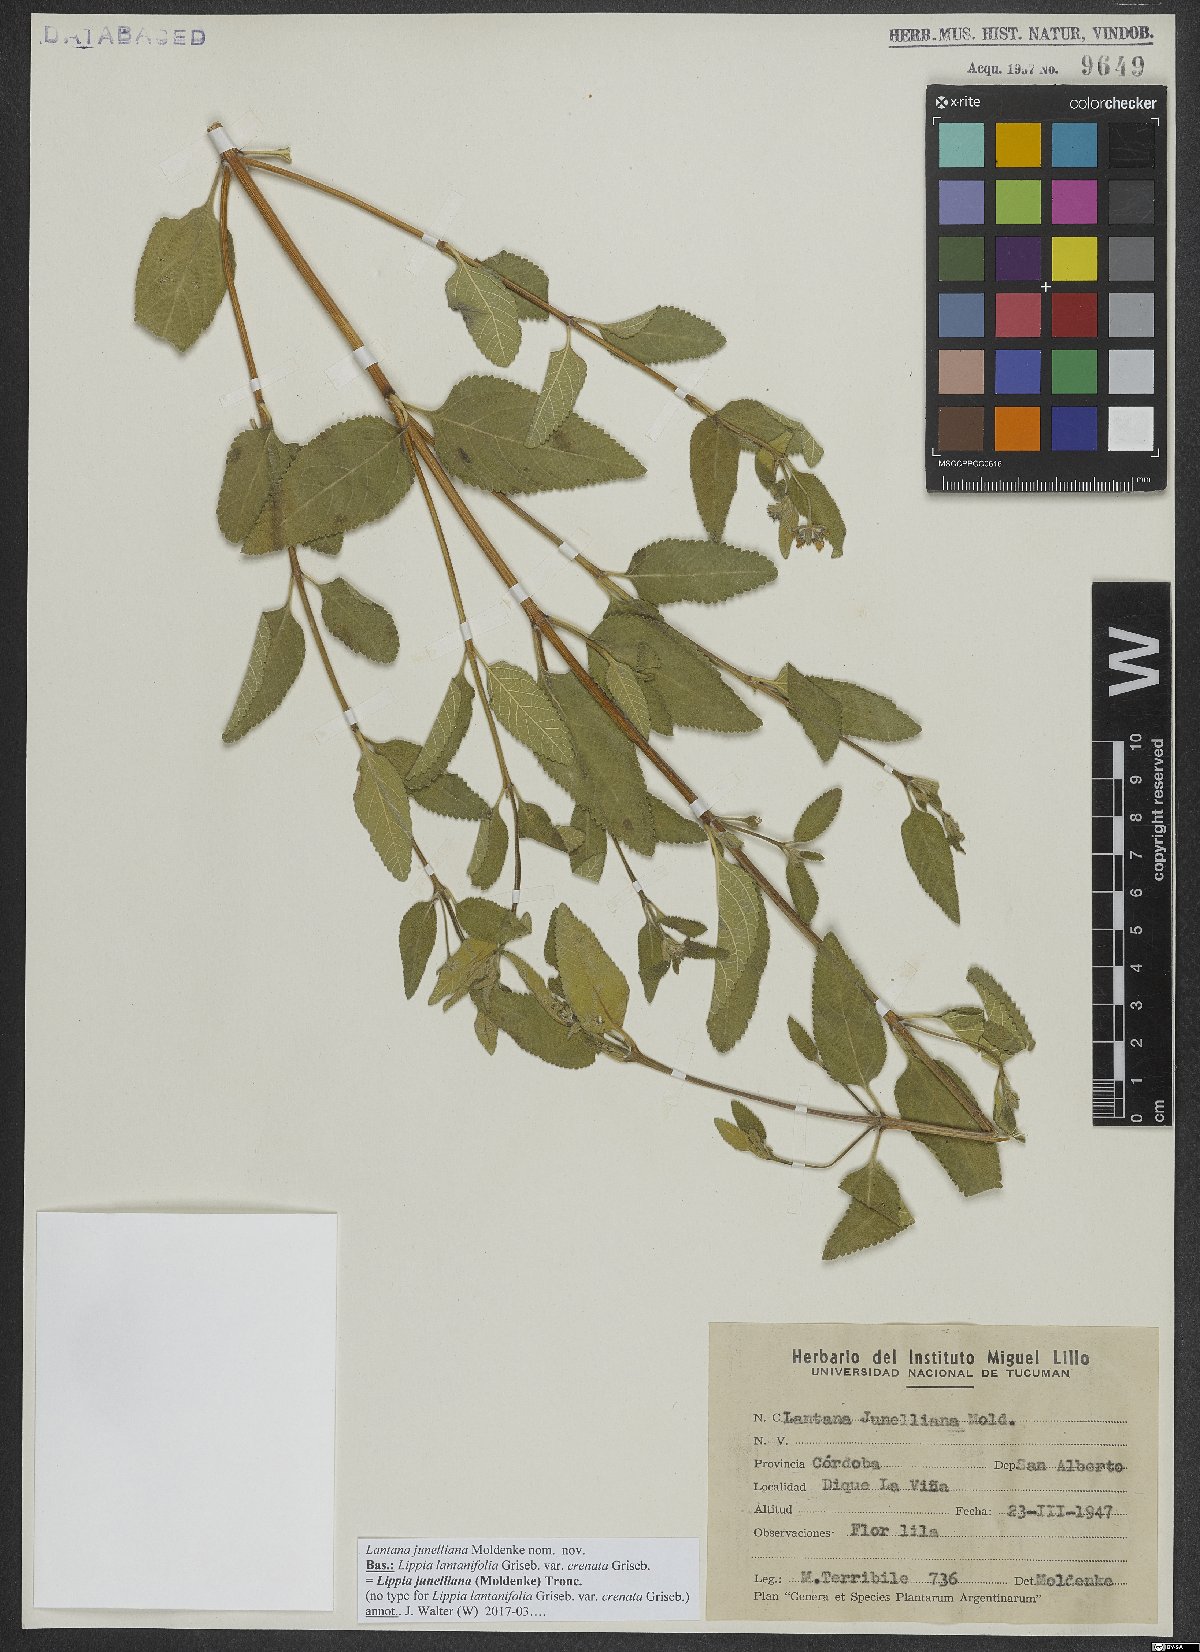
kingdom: Plantae
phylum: Tracheophyta
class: Magnoliopsida
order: Lamiales
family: Verbenaceae
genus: Lippia
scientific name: Lippia junelliana
